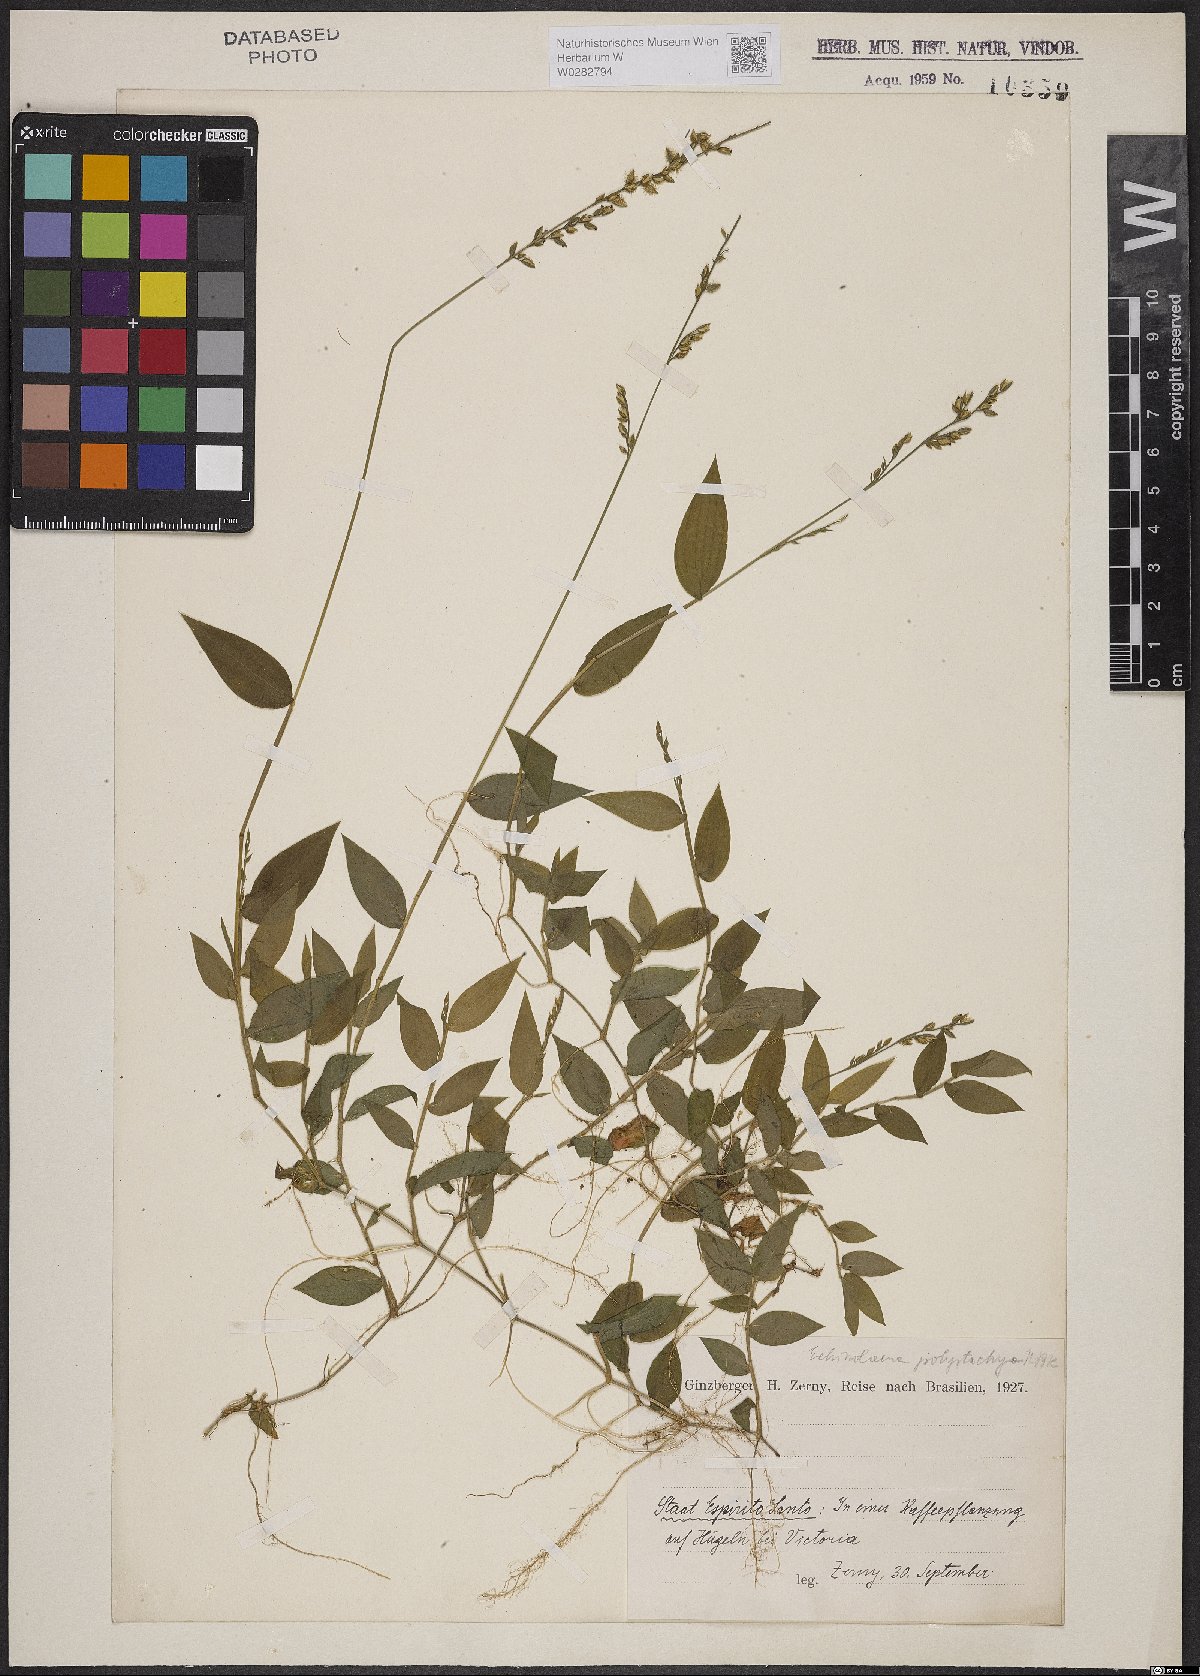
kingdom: Plantae
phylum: Tracheophyta
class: Liliopsida
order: Poales
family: Poaceae
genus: Pseudechinolaena
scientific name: Pseudechinolaena polystachya
